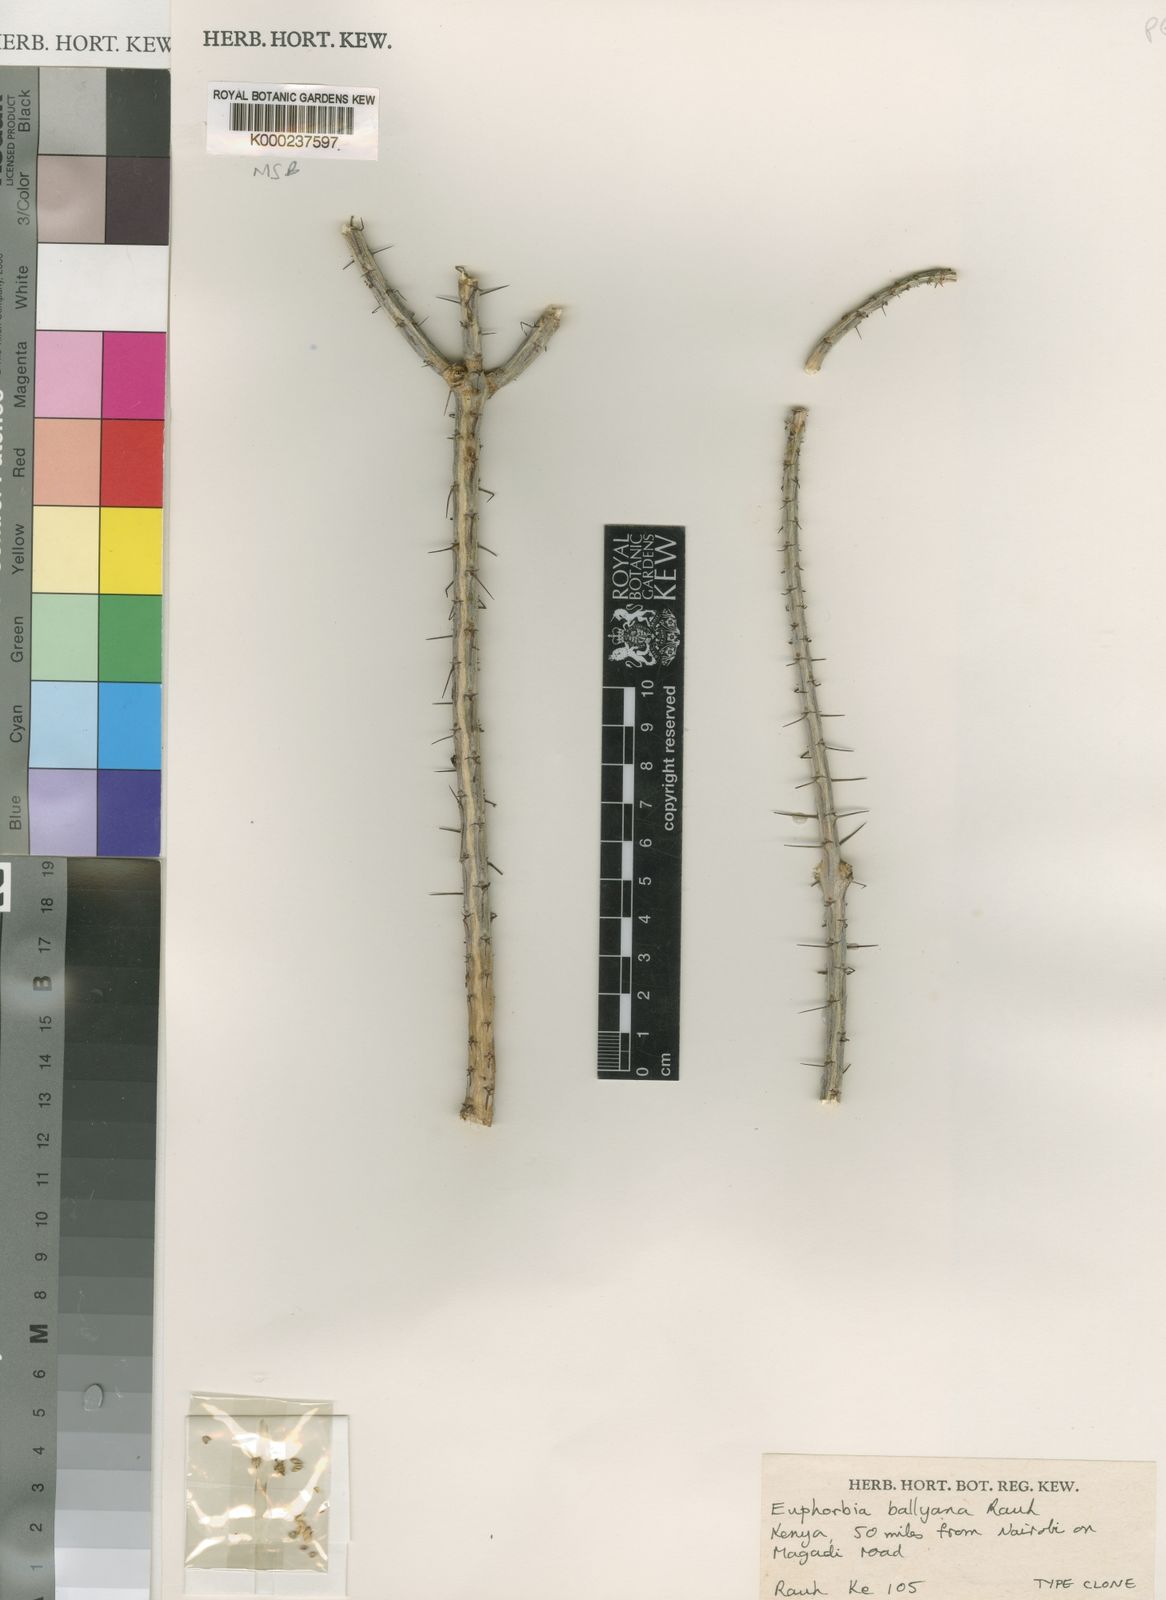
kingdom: Plantae
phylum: Tracheophyta
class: Magnoliopsida
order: Malpighiales
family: Euphorbiaceae
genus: Euphorbia
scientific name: Euphorbia ballyana
